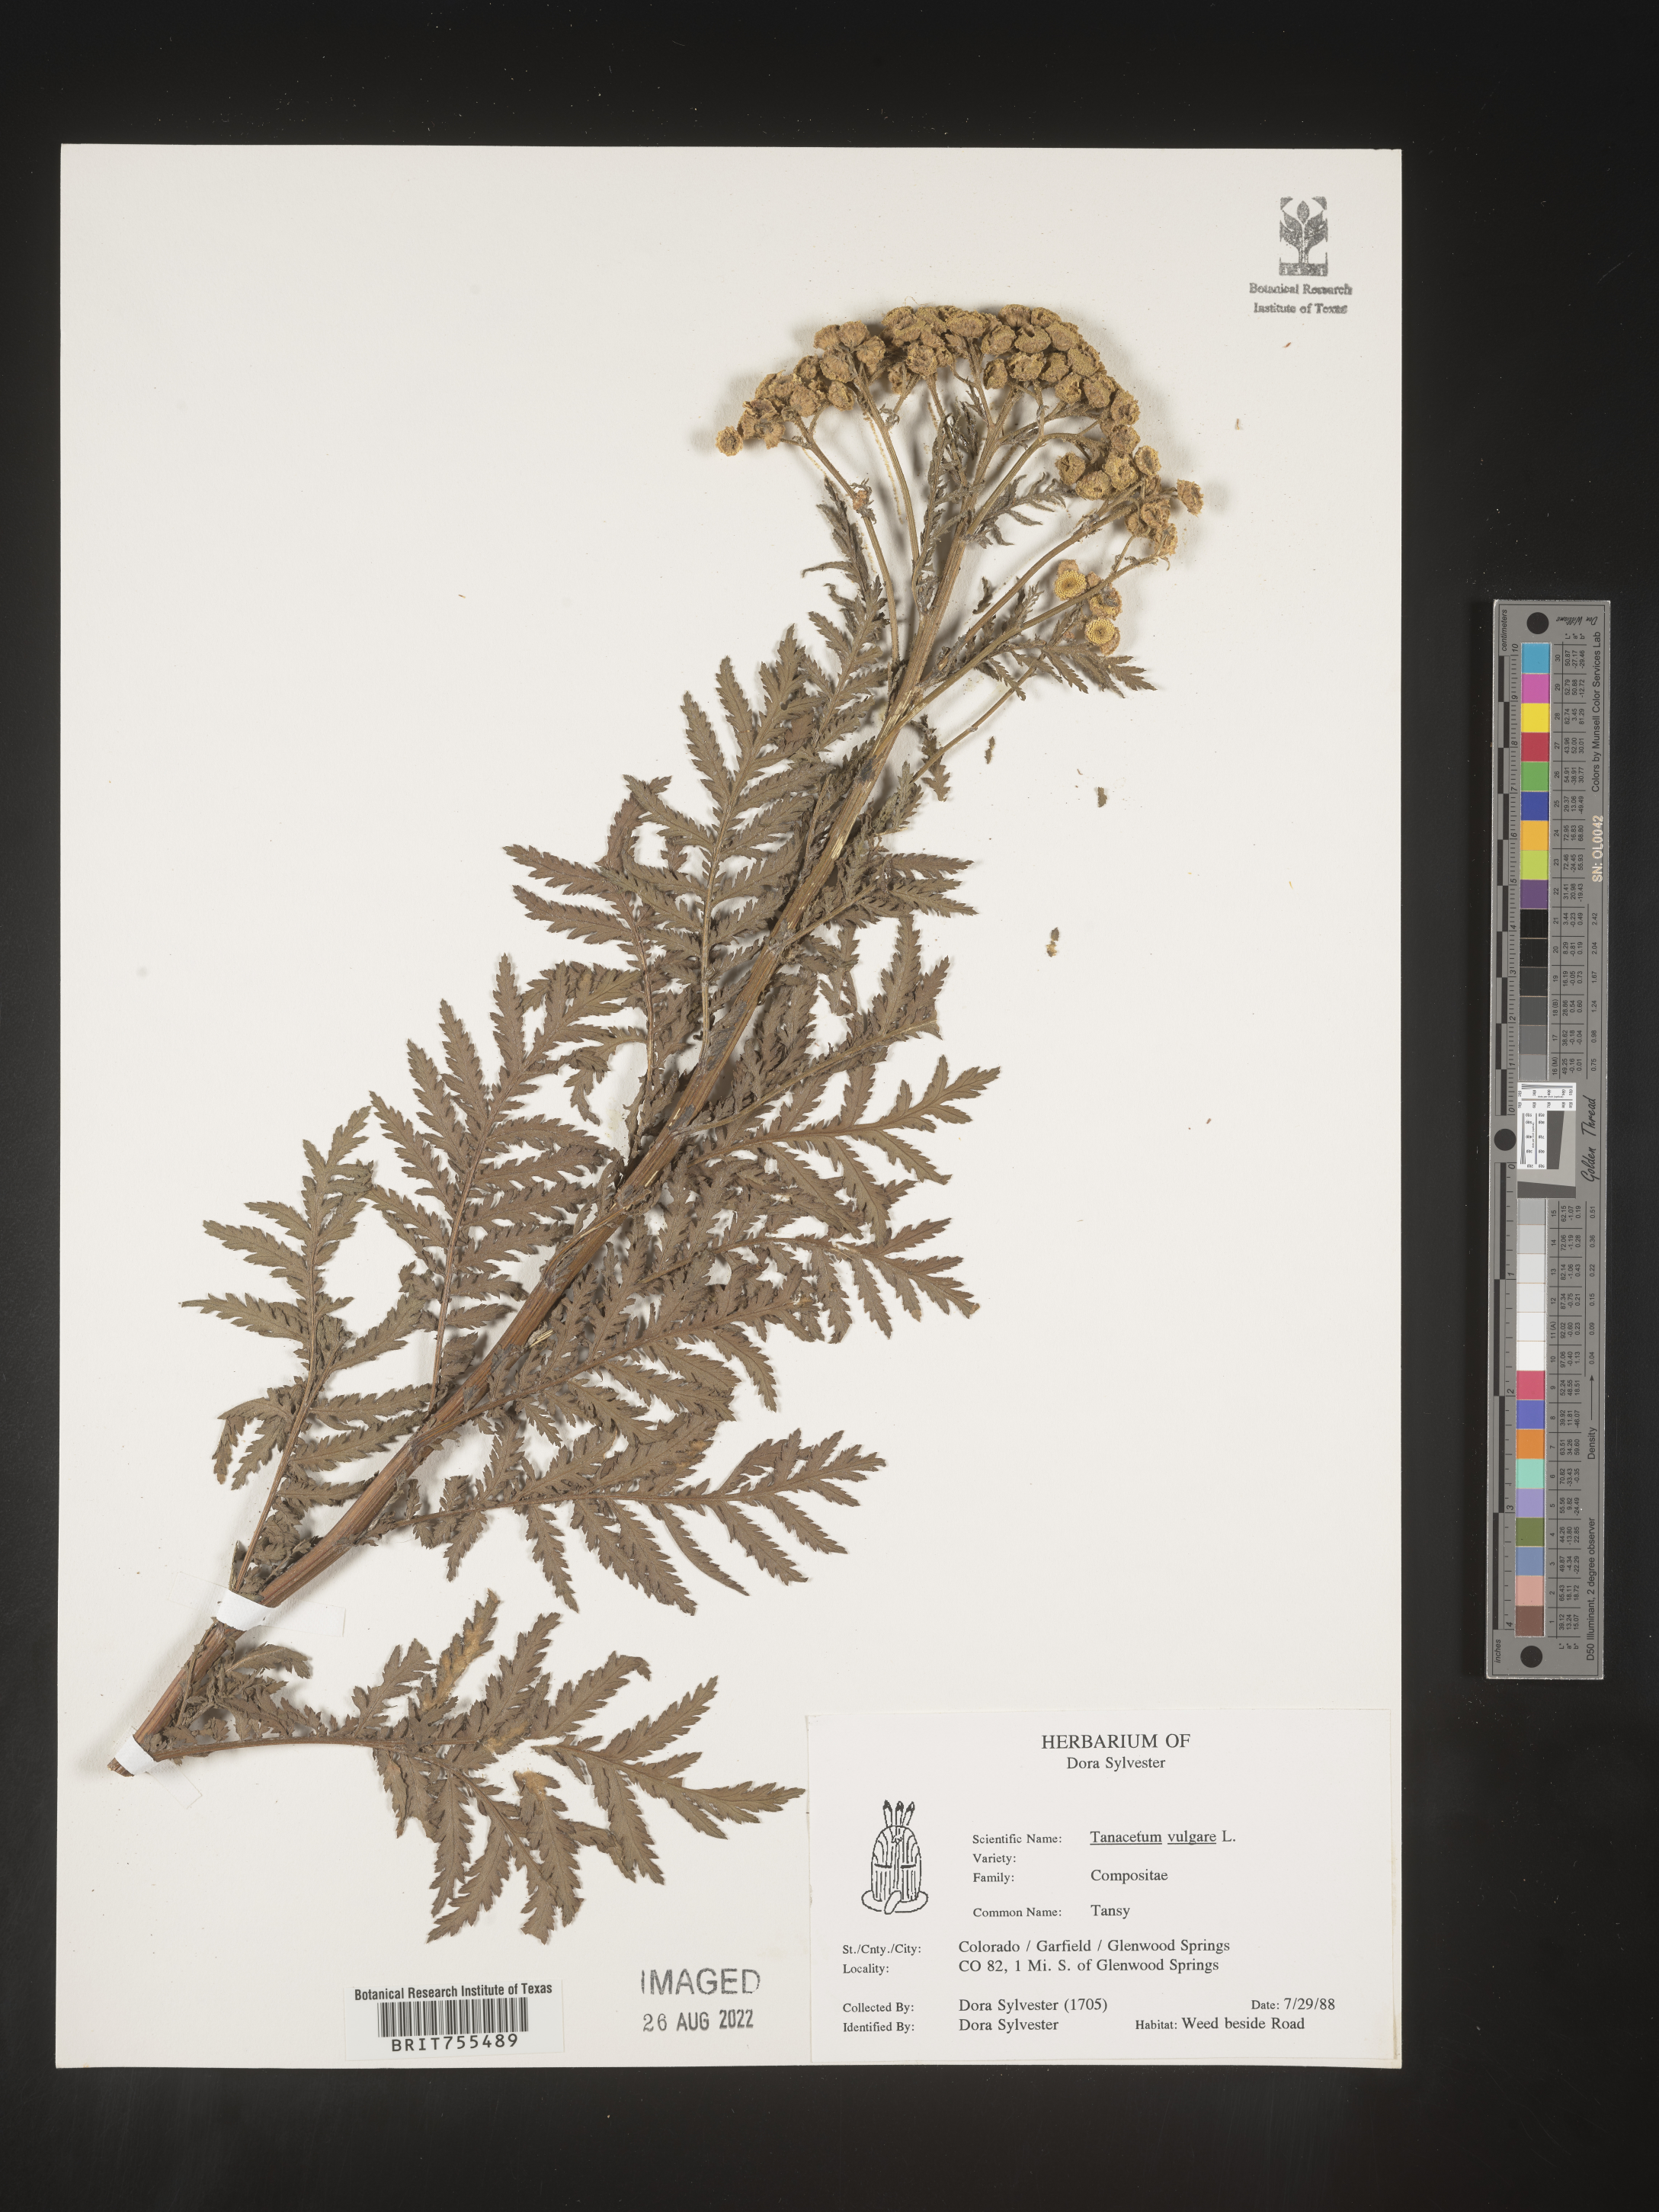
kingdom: Plantae
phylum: Tracheophyta
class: Magnoliopsida
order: Asterales
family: Asteraceae
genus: Tanacetum
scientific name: Tanacetum vulgare
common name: Common tansy
